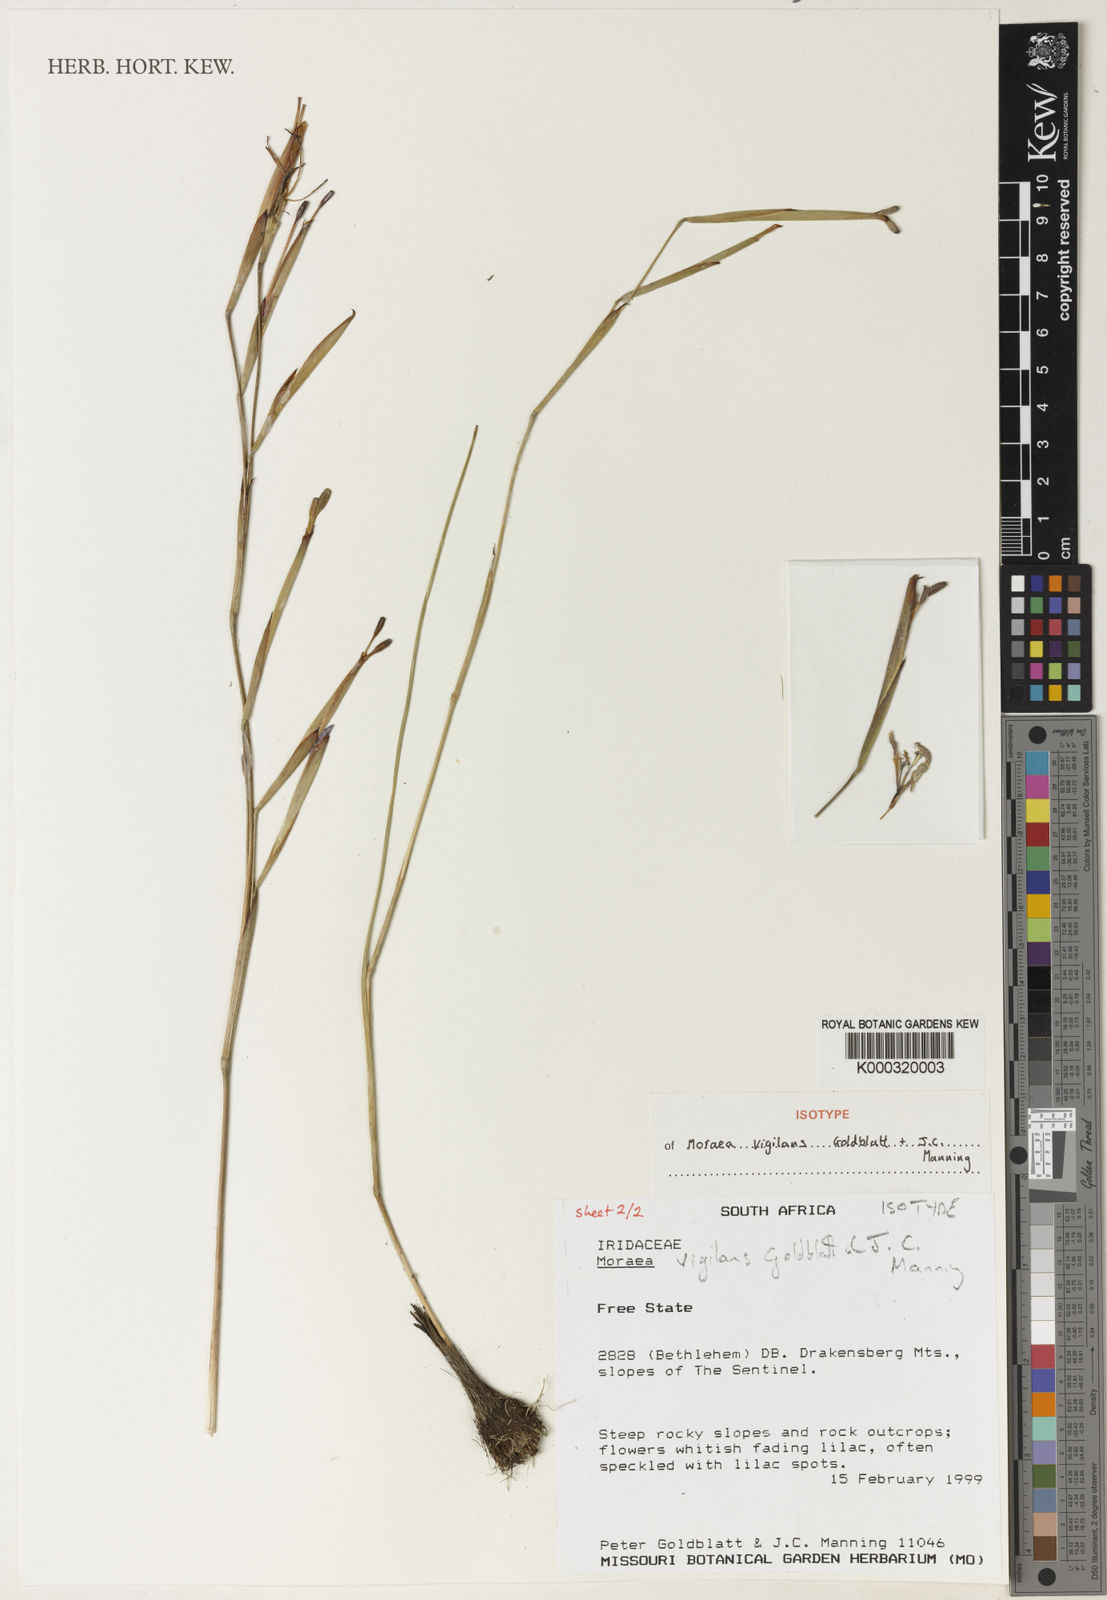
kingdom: Plantae
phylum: Tracheophyta
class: Liliopsida
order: Asparagales
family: Iridaceae
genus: Moraea
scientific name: Moraea vigilans
